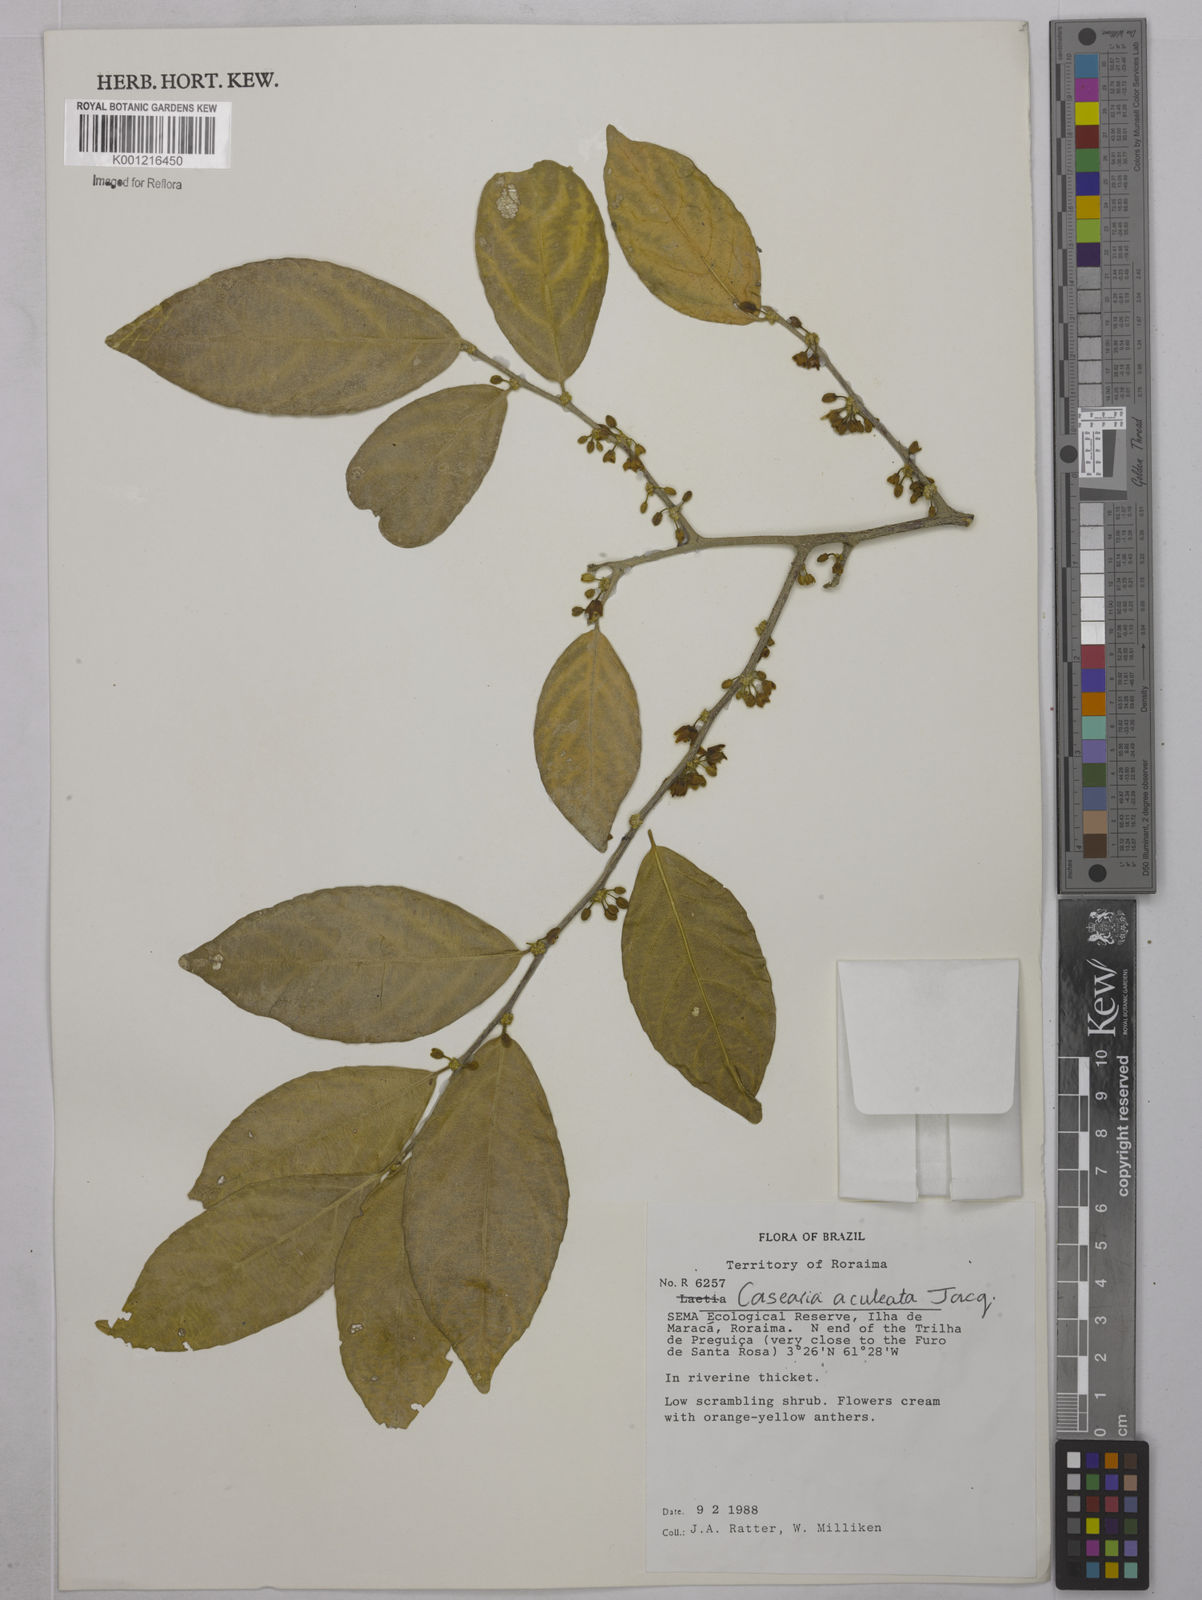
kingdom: Plantae
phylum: Tracheophyta
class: Magnoliopsida
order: Malpighiales
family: Salicaceae
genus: Casearia
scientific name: Casearia aculeata
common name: Cockspur
